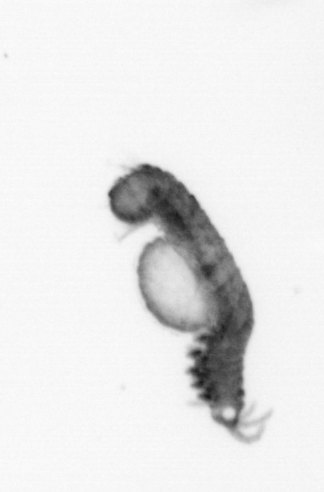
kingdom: Animalia
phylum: Annelida
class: Polychaeta
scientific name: Polychaeta
